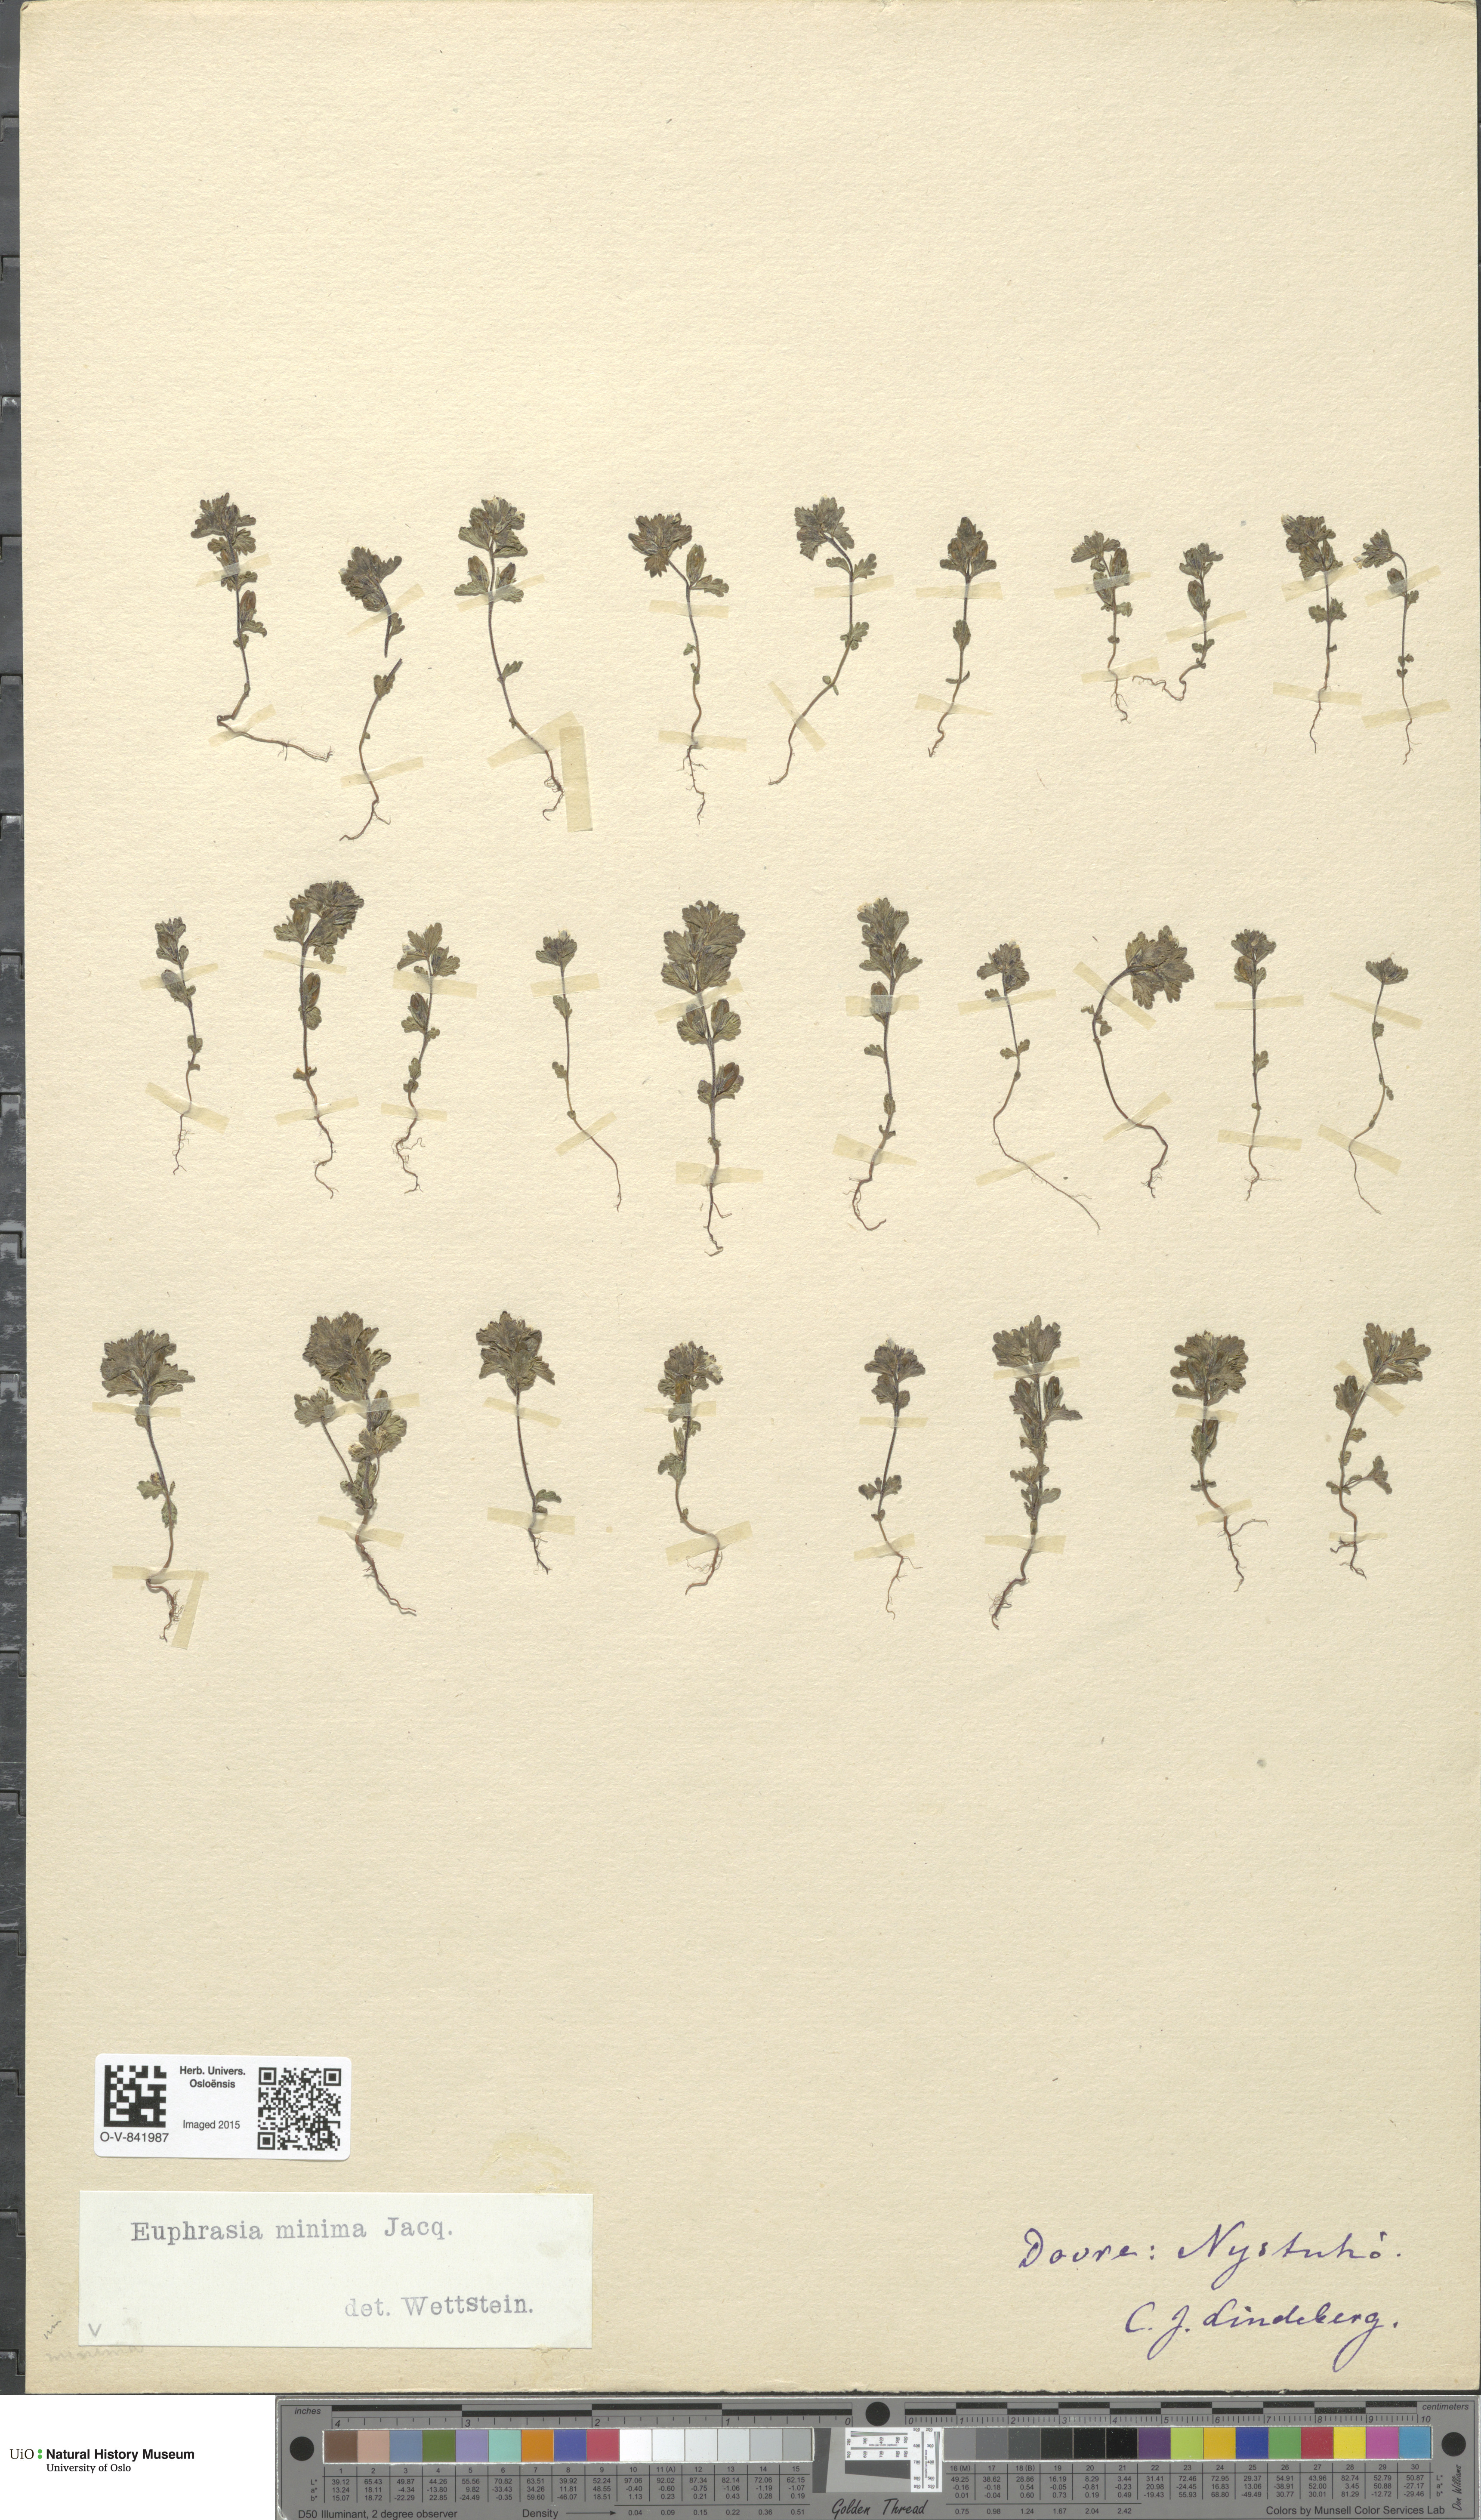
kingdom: Plantae
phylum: Tracheophyta
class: Magnoliopsida
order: Lamiales
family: Orobanchaceae
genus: Euphrasia
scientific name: Euphrasia wettsteinii
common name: Wettstein's eyebright
